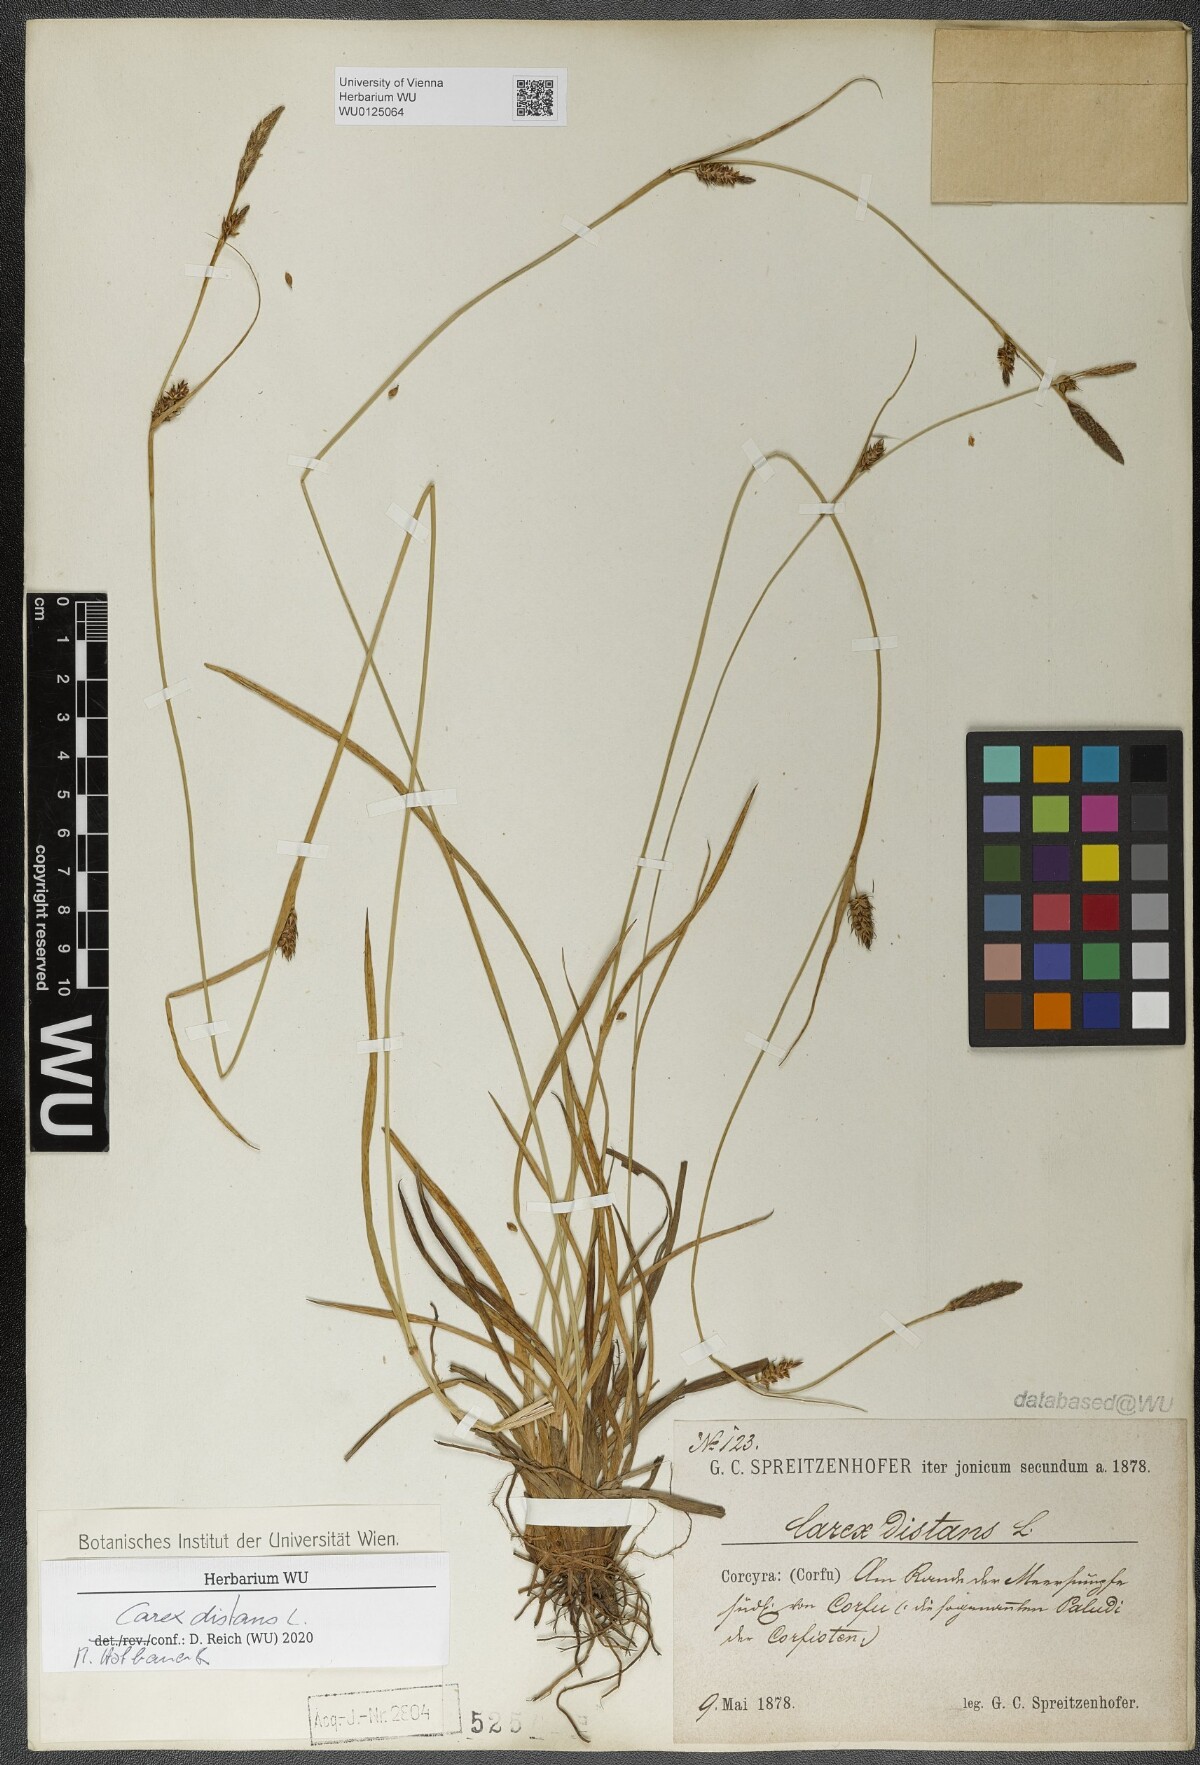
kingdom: Plantae
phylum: Tracheophyta
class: Liliopsida
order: Poales
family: Cyperaceae
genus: Carex
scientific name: Carex distans
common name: Distant sedge
